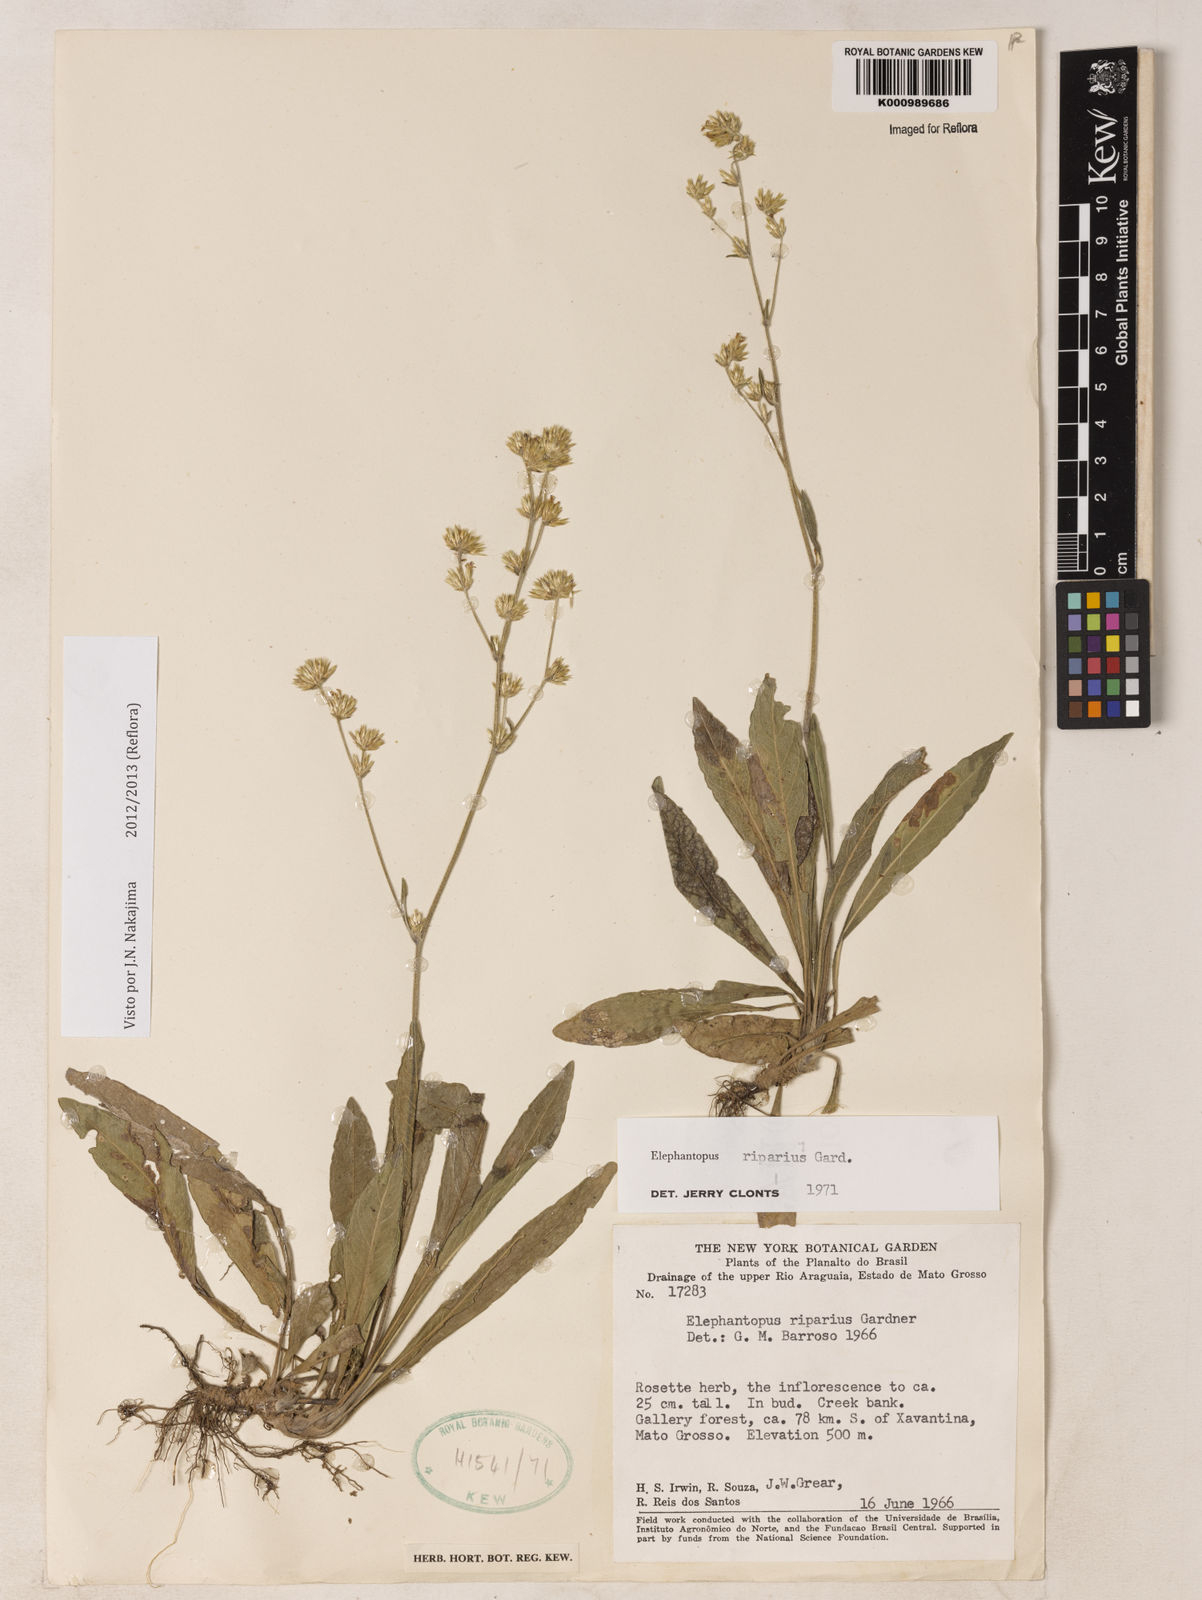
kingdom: Plantae
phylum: Tracheophyta
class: Magnoliopsida
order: Asterales
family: Asteraceae
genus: Elephantopus
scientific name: Elephantopus riparius
